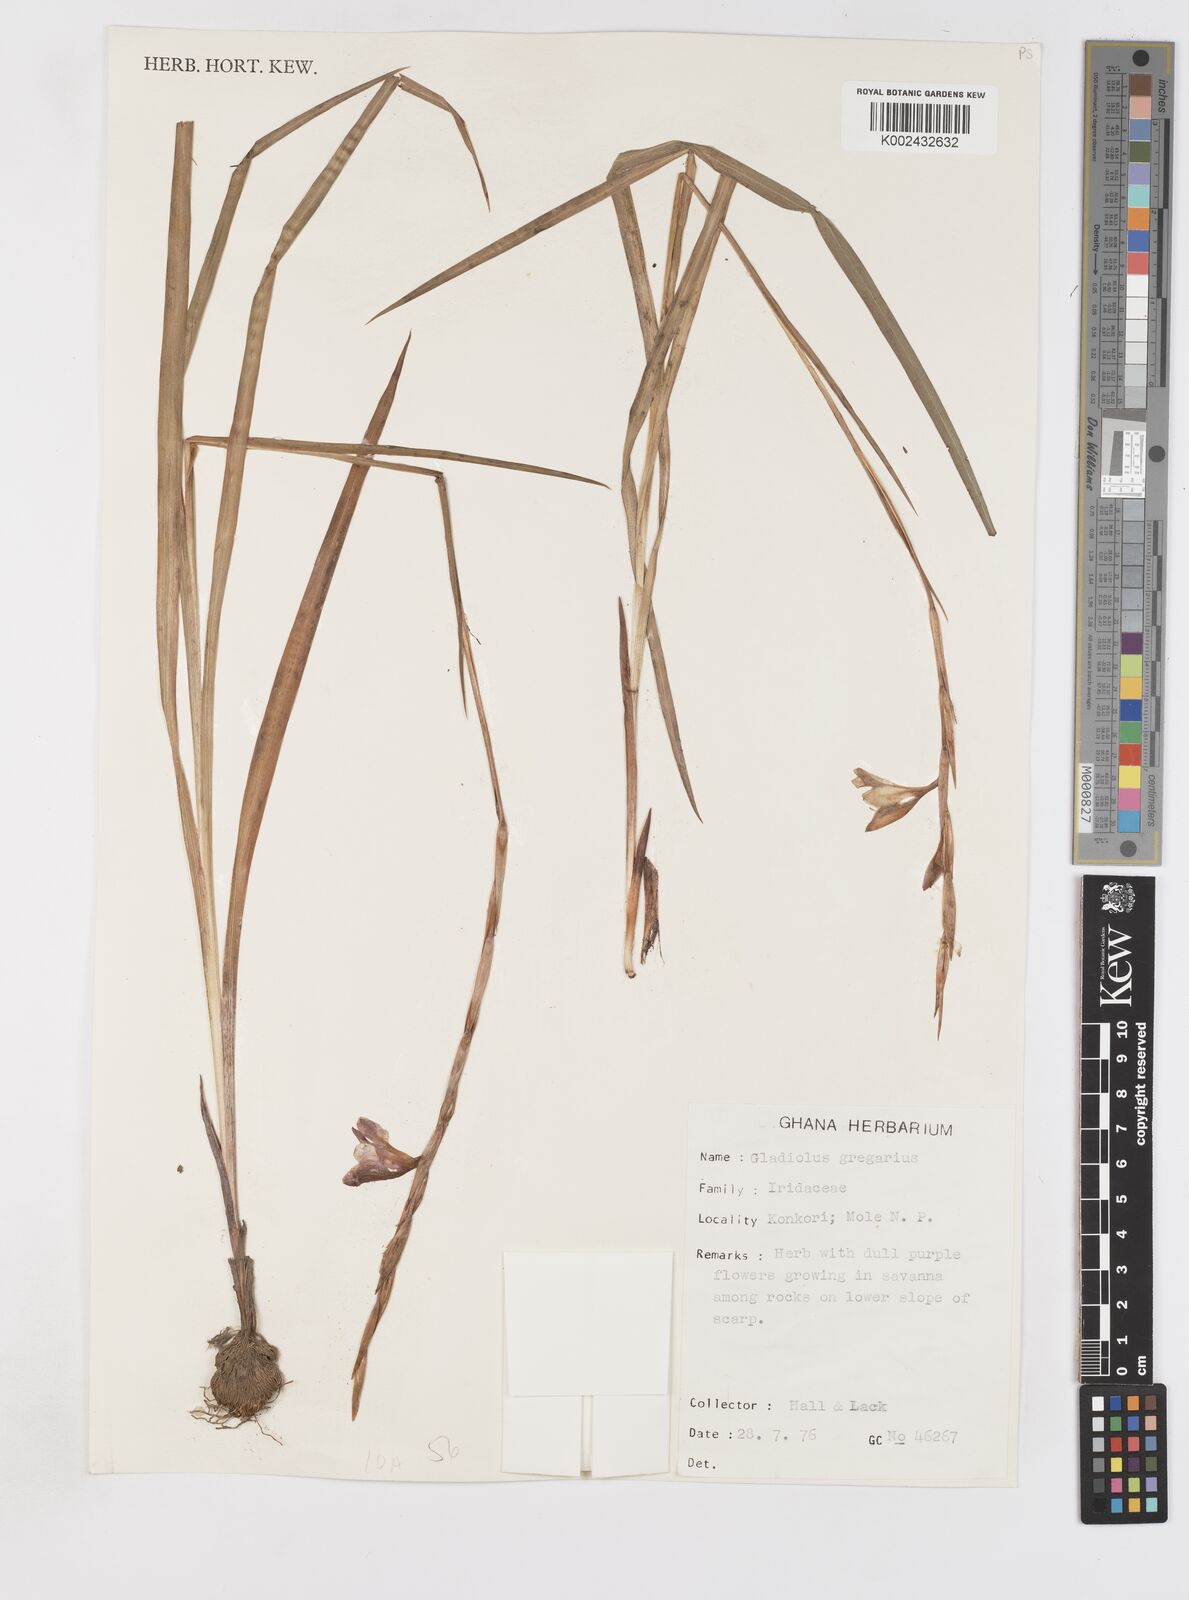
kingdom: Plantae
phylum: Tracheophyta
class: Liliopsida
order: Asparagales
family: Iridaceae
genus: Gladiolus
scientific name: Gladiolus gregarius
